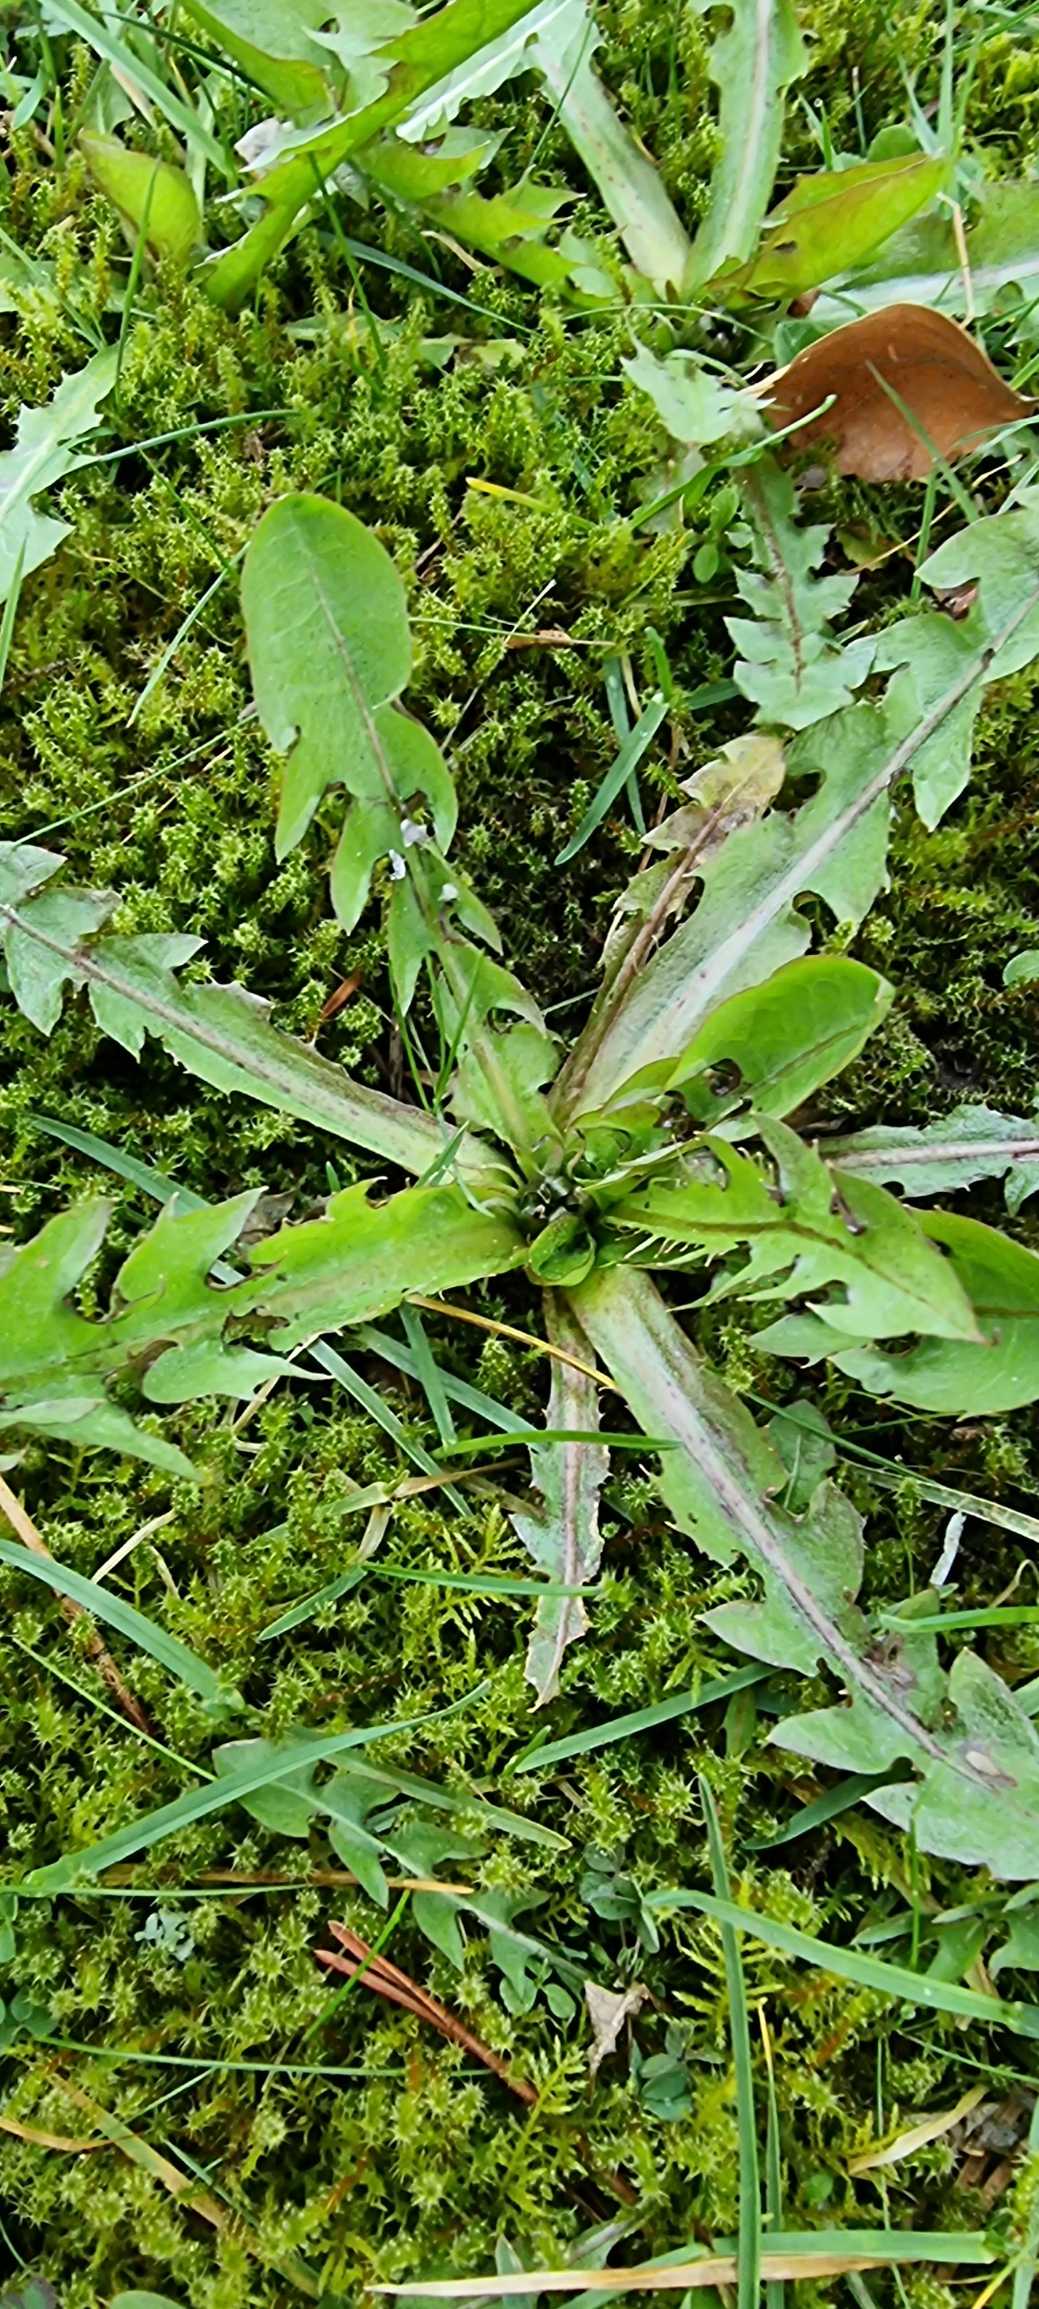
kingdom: Plantae
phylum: Tracheophyta
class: Magnoliopsida
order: Asterales
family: Asteraceae
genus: Taraxacum
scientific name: Taraxacum
